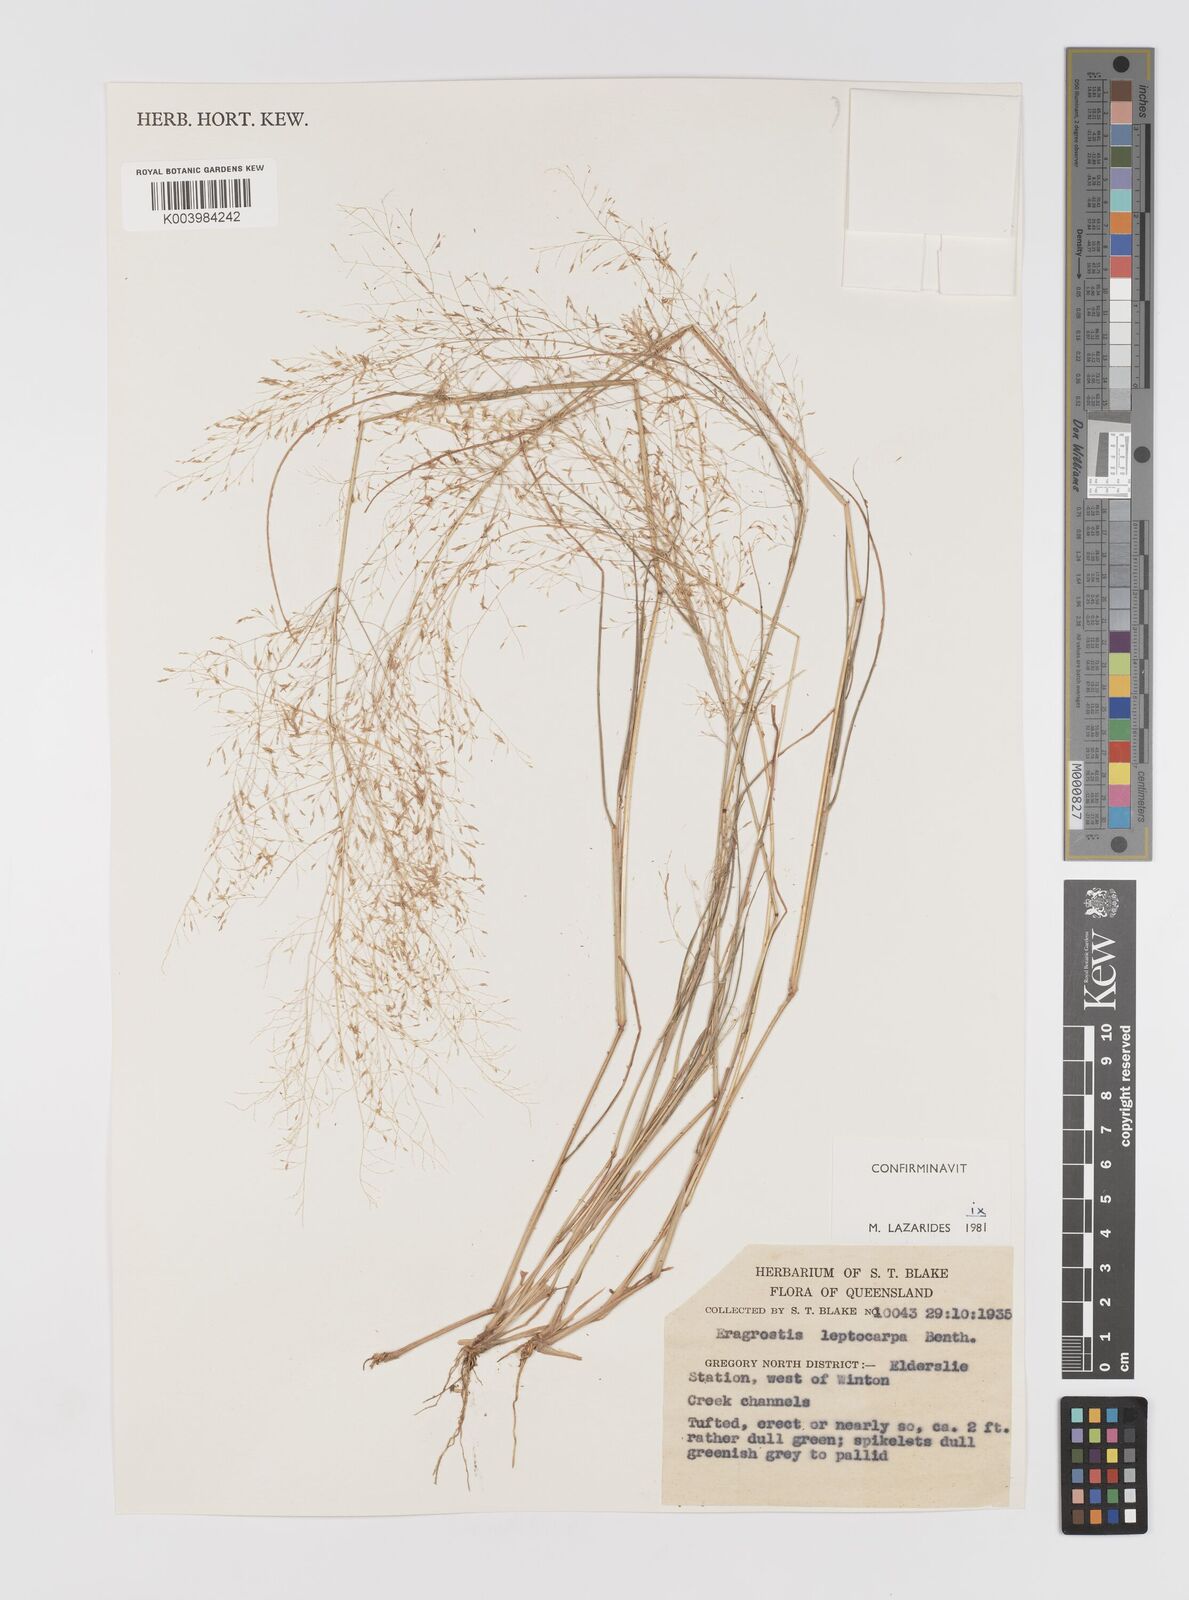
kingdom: Plantae
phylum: Tracheophyta
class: Liliopsida
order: Poales
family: Poaceae
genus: Eragrostis
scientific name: Eragrostis leptocarpa
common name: Drooping love grass
